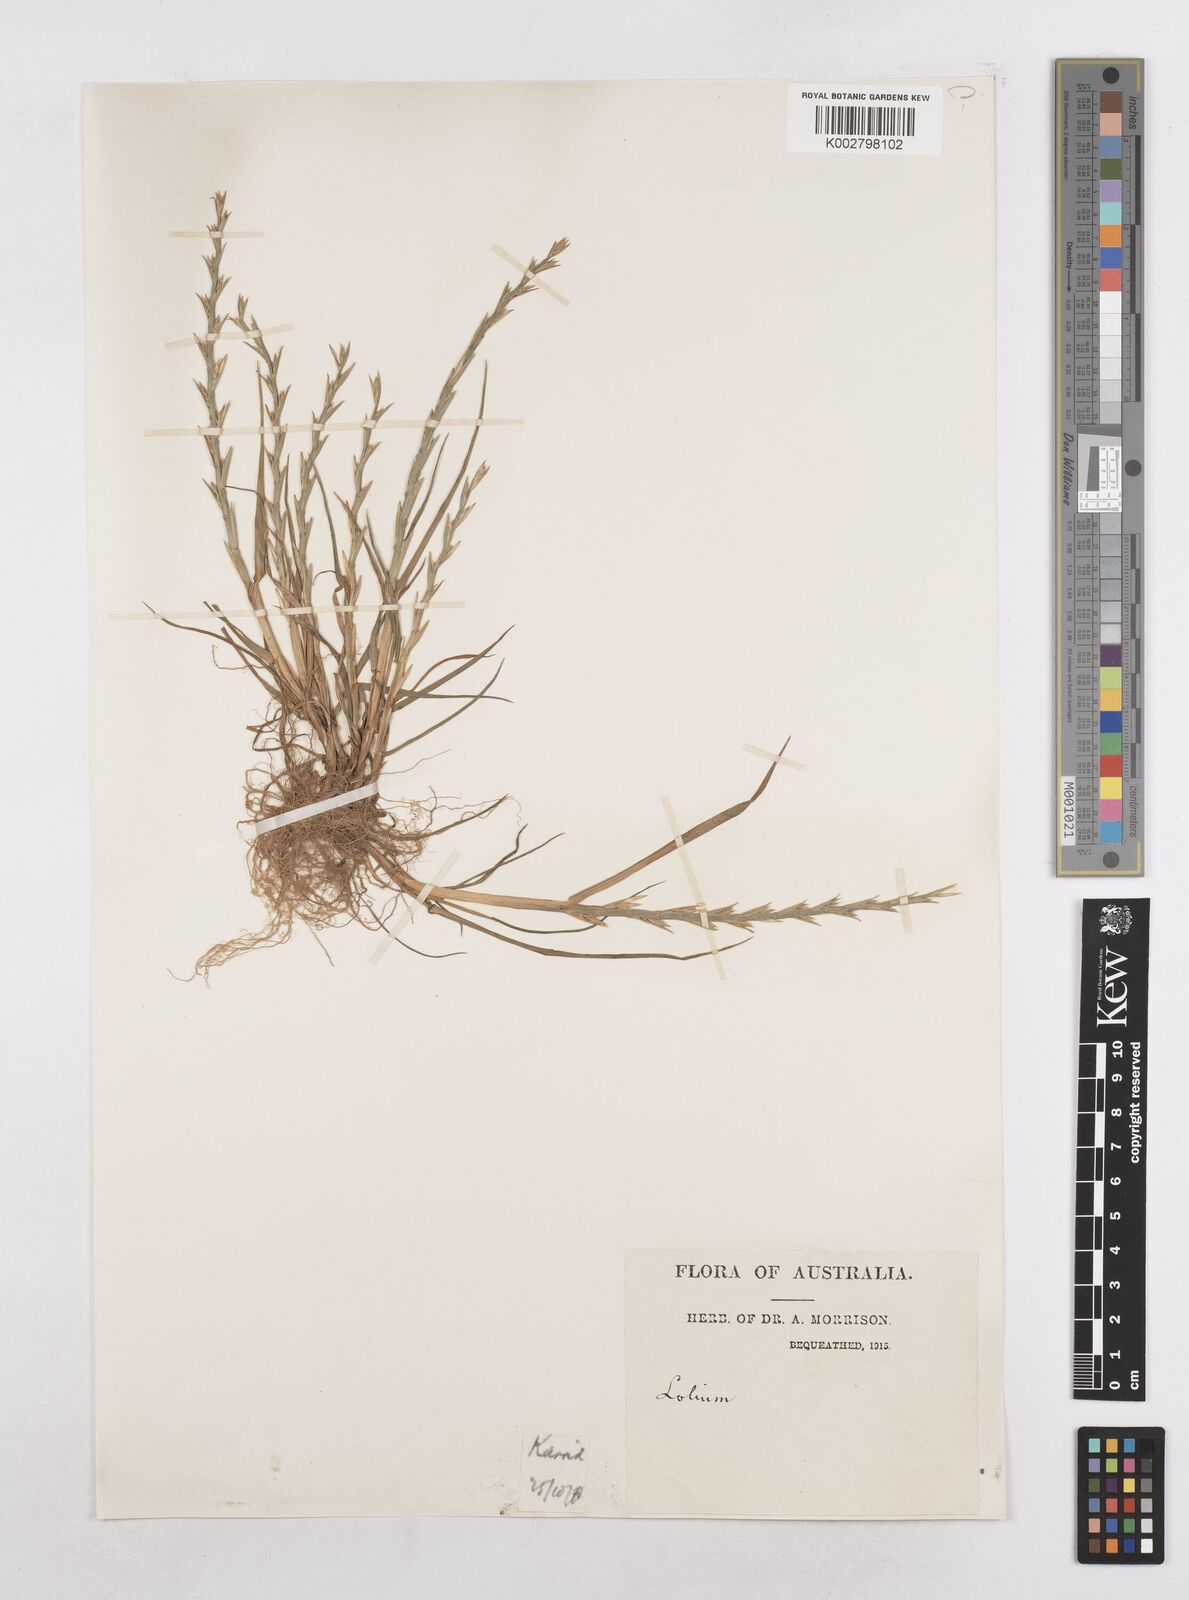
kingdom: Plantae
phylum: Tracheophyta
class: Liliopsida
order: Poales
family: Poaceae
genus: Lolium
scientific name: Lolium
